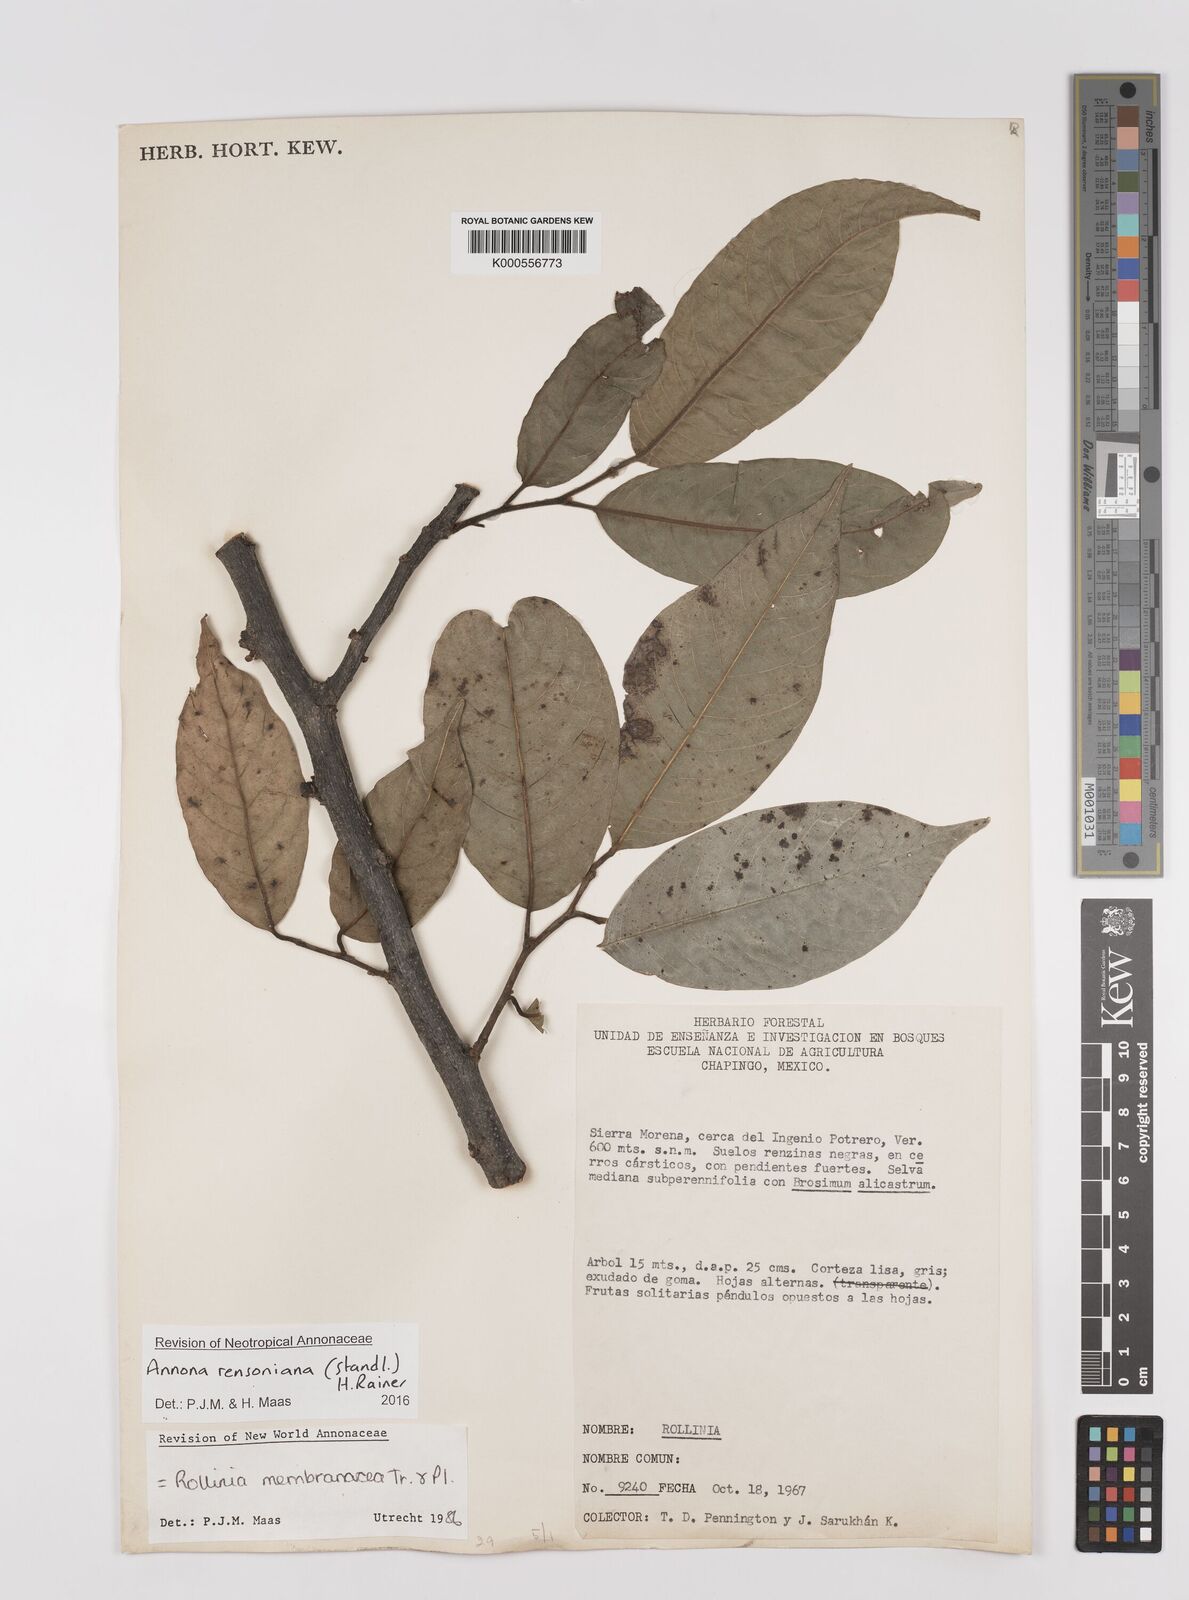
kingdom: Plantae
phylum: Tracheophyta
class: Magnoliopsida
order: Magnoliales
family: Annonaceae
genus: Annona
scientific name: Annona rensoniana
